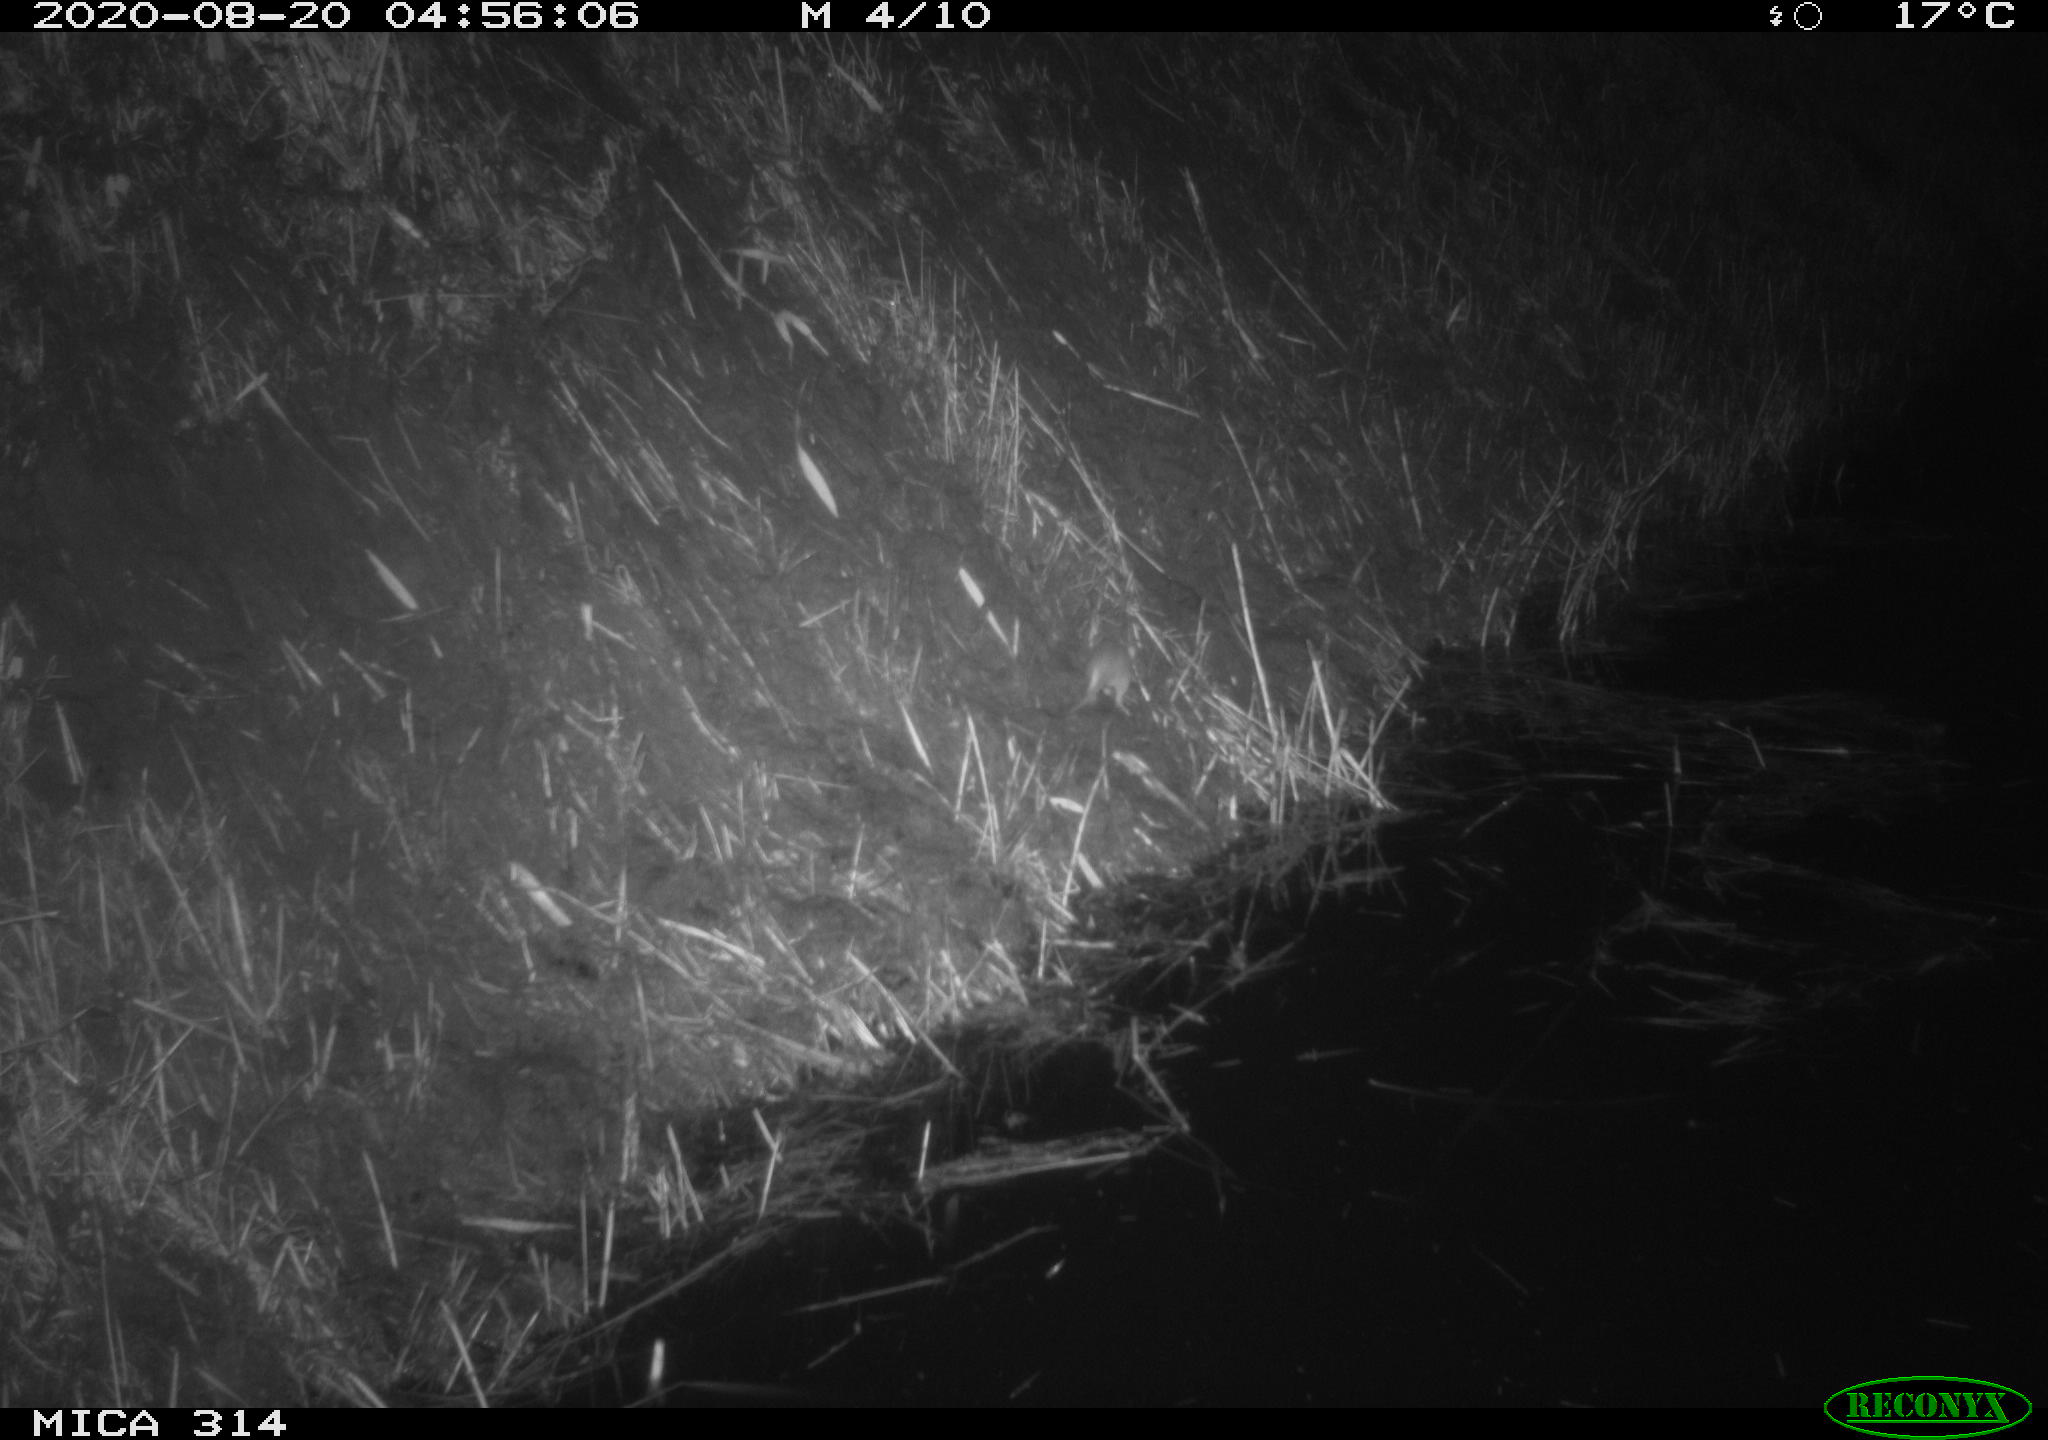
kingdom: Animalia
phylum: Chordata
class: Mammalia
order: Rodentia
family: Muridae
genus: Rattus
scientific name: Rattus norvegicus
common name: Brown rat
